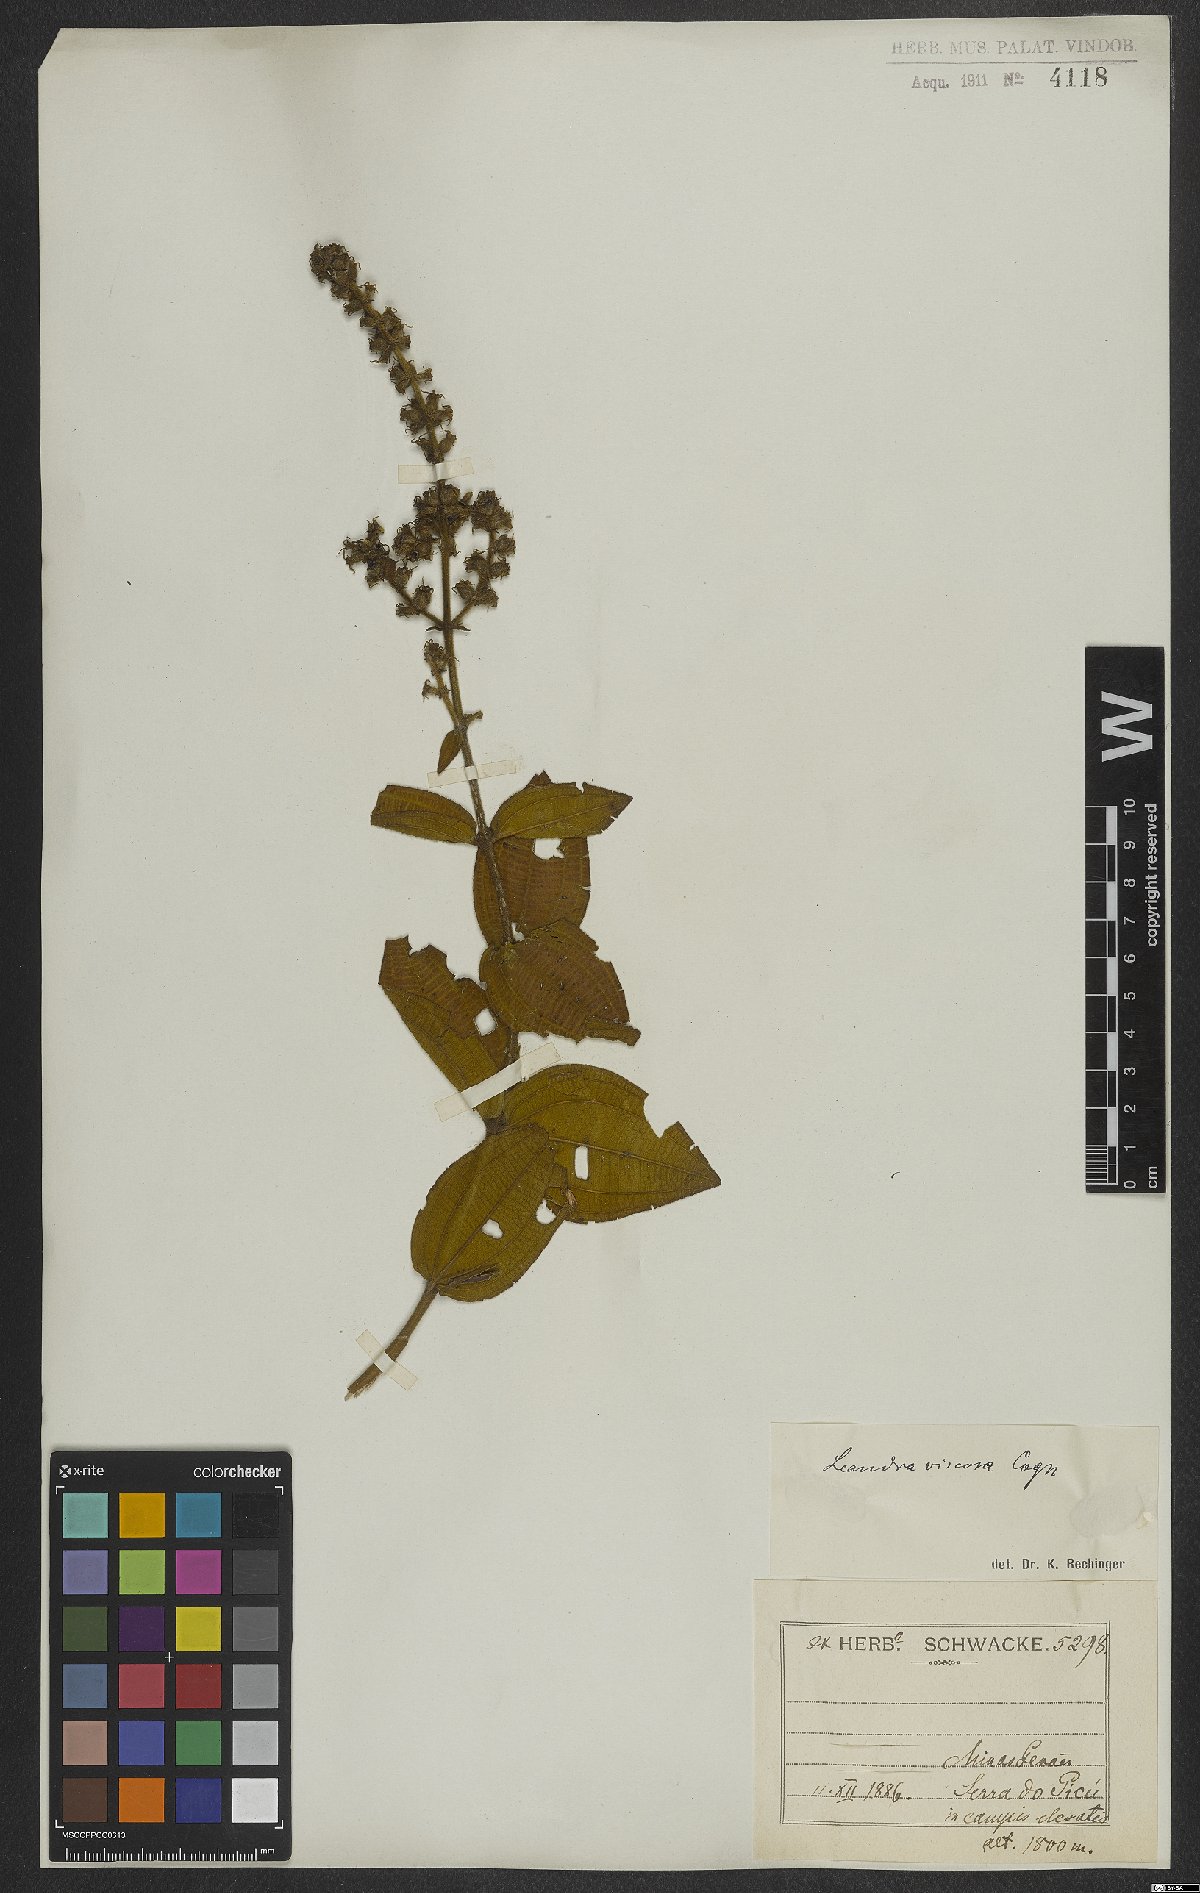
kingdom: Plantae
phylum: Tracheophyta
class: Magnoliopsida
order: Myrtales
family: Melastomataceae
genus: Miconia
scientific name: Miconia viscosa
